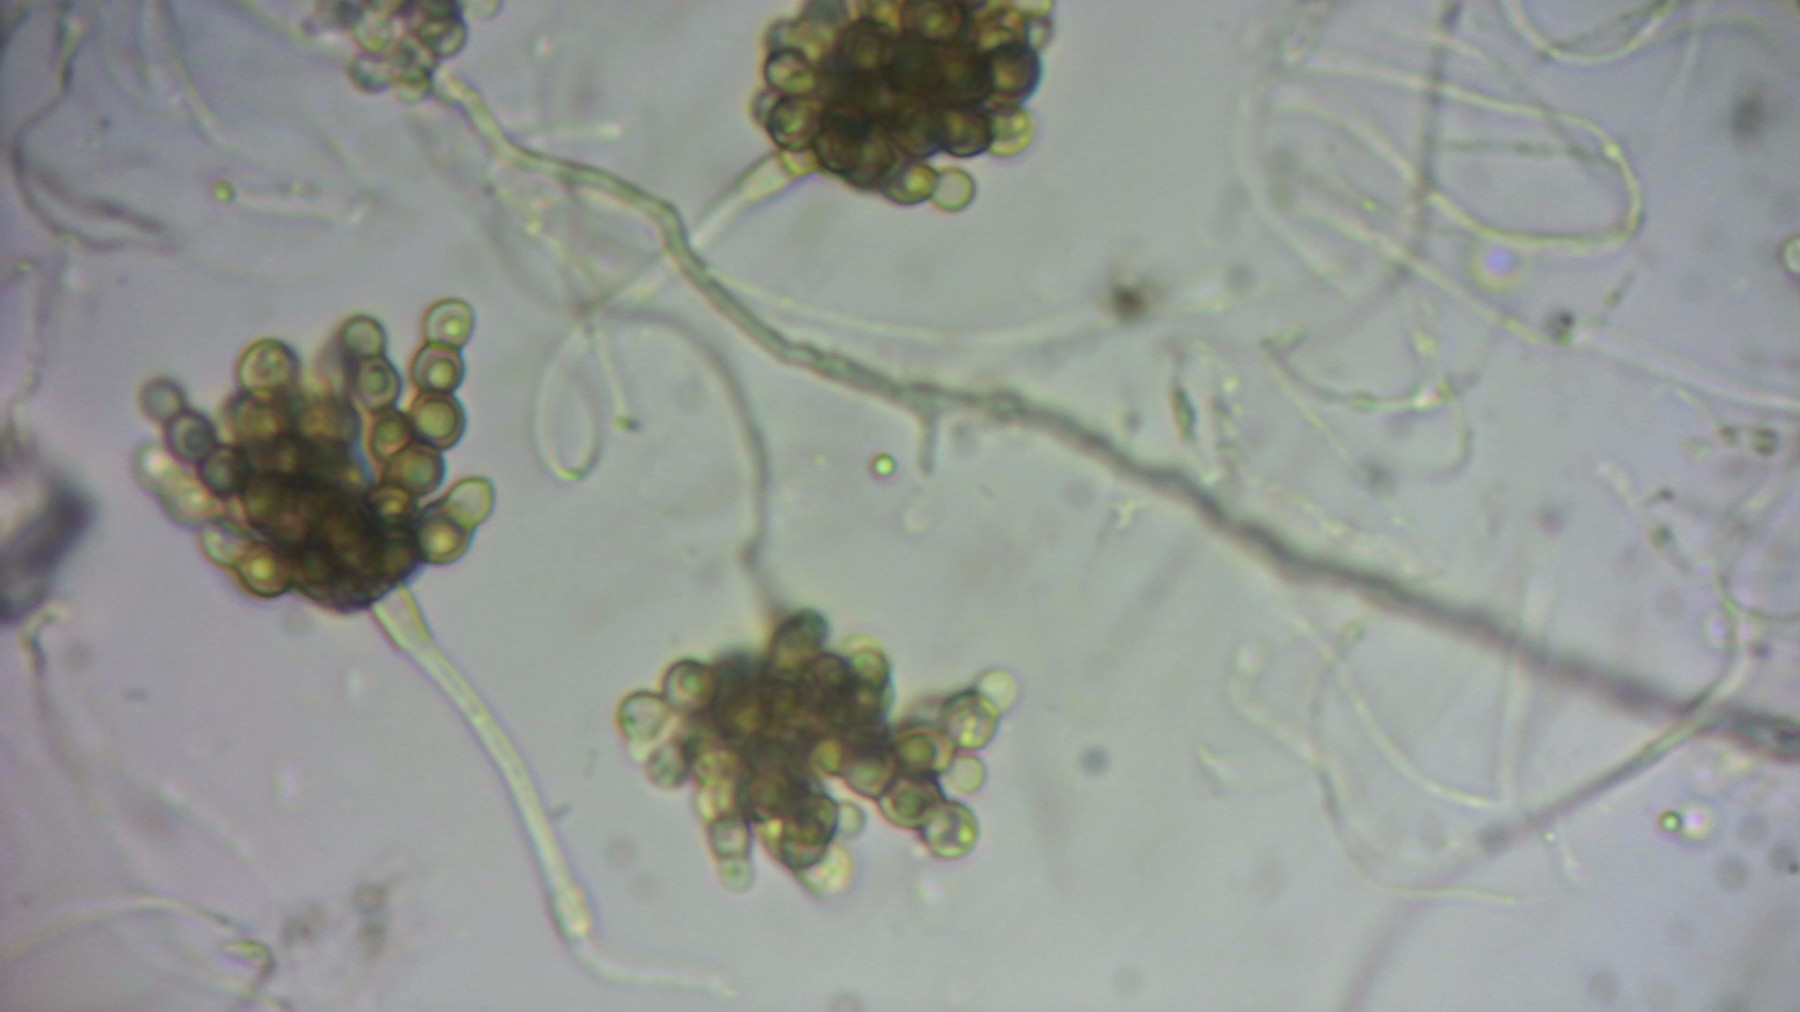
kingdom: Fungi
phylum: Ascomycota
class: Leotiomycetes
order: Helotiales
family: Mollisiaceae
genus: Cheirospora
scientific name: Cheirospora botryospora
